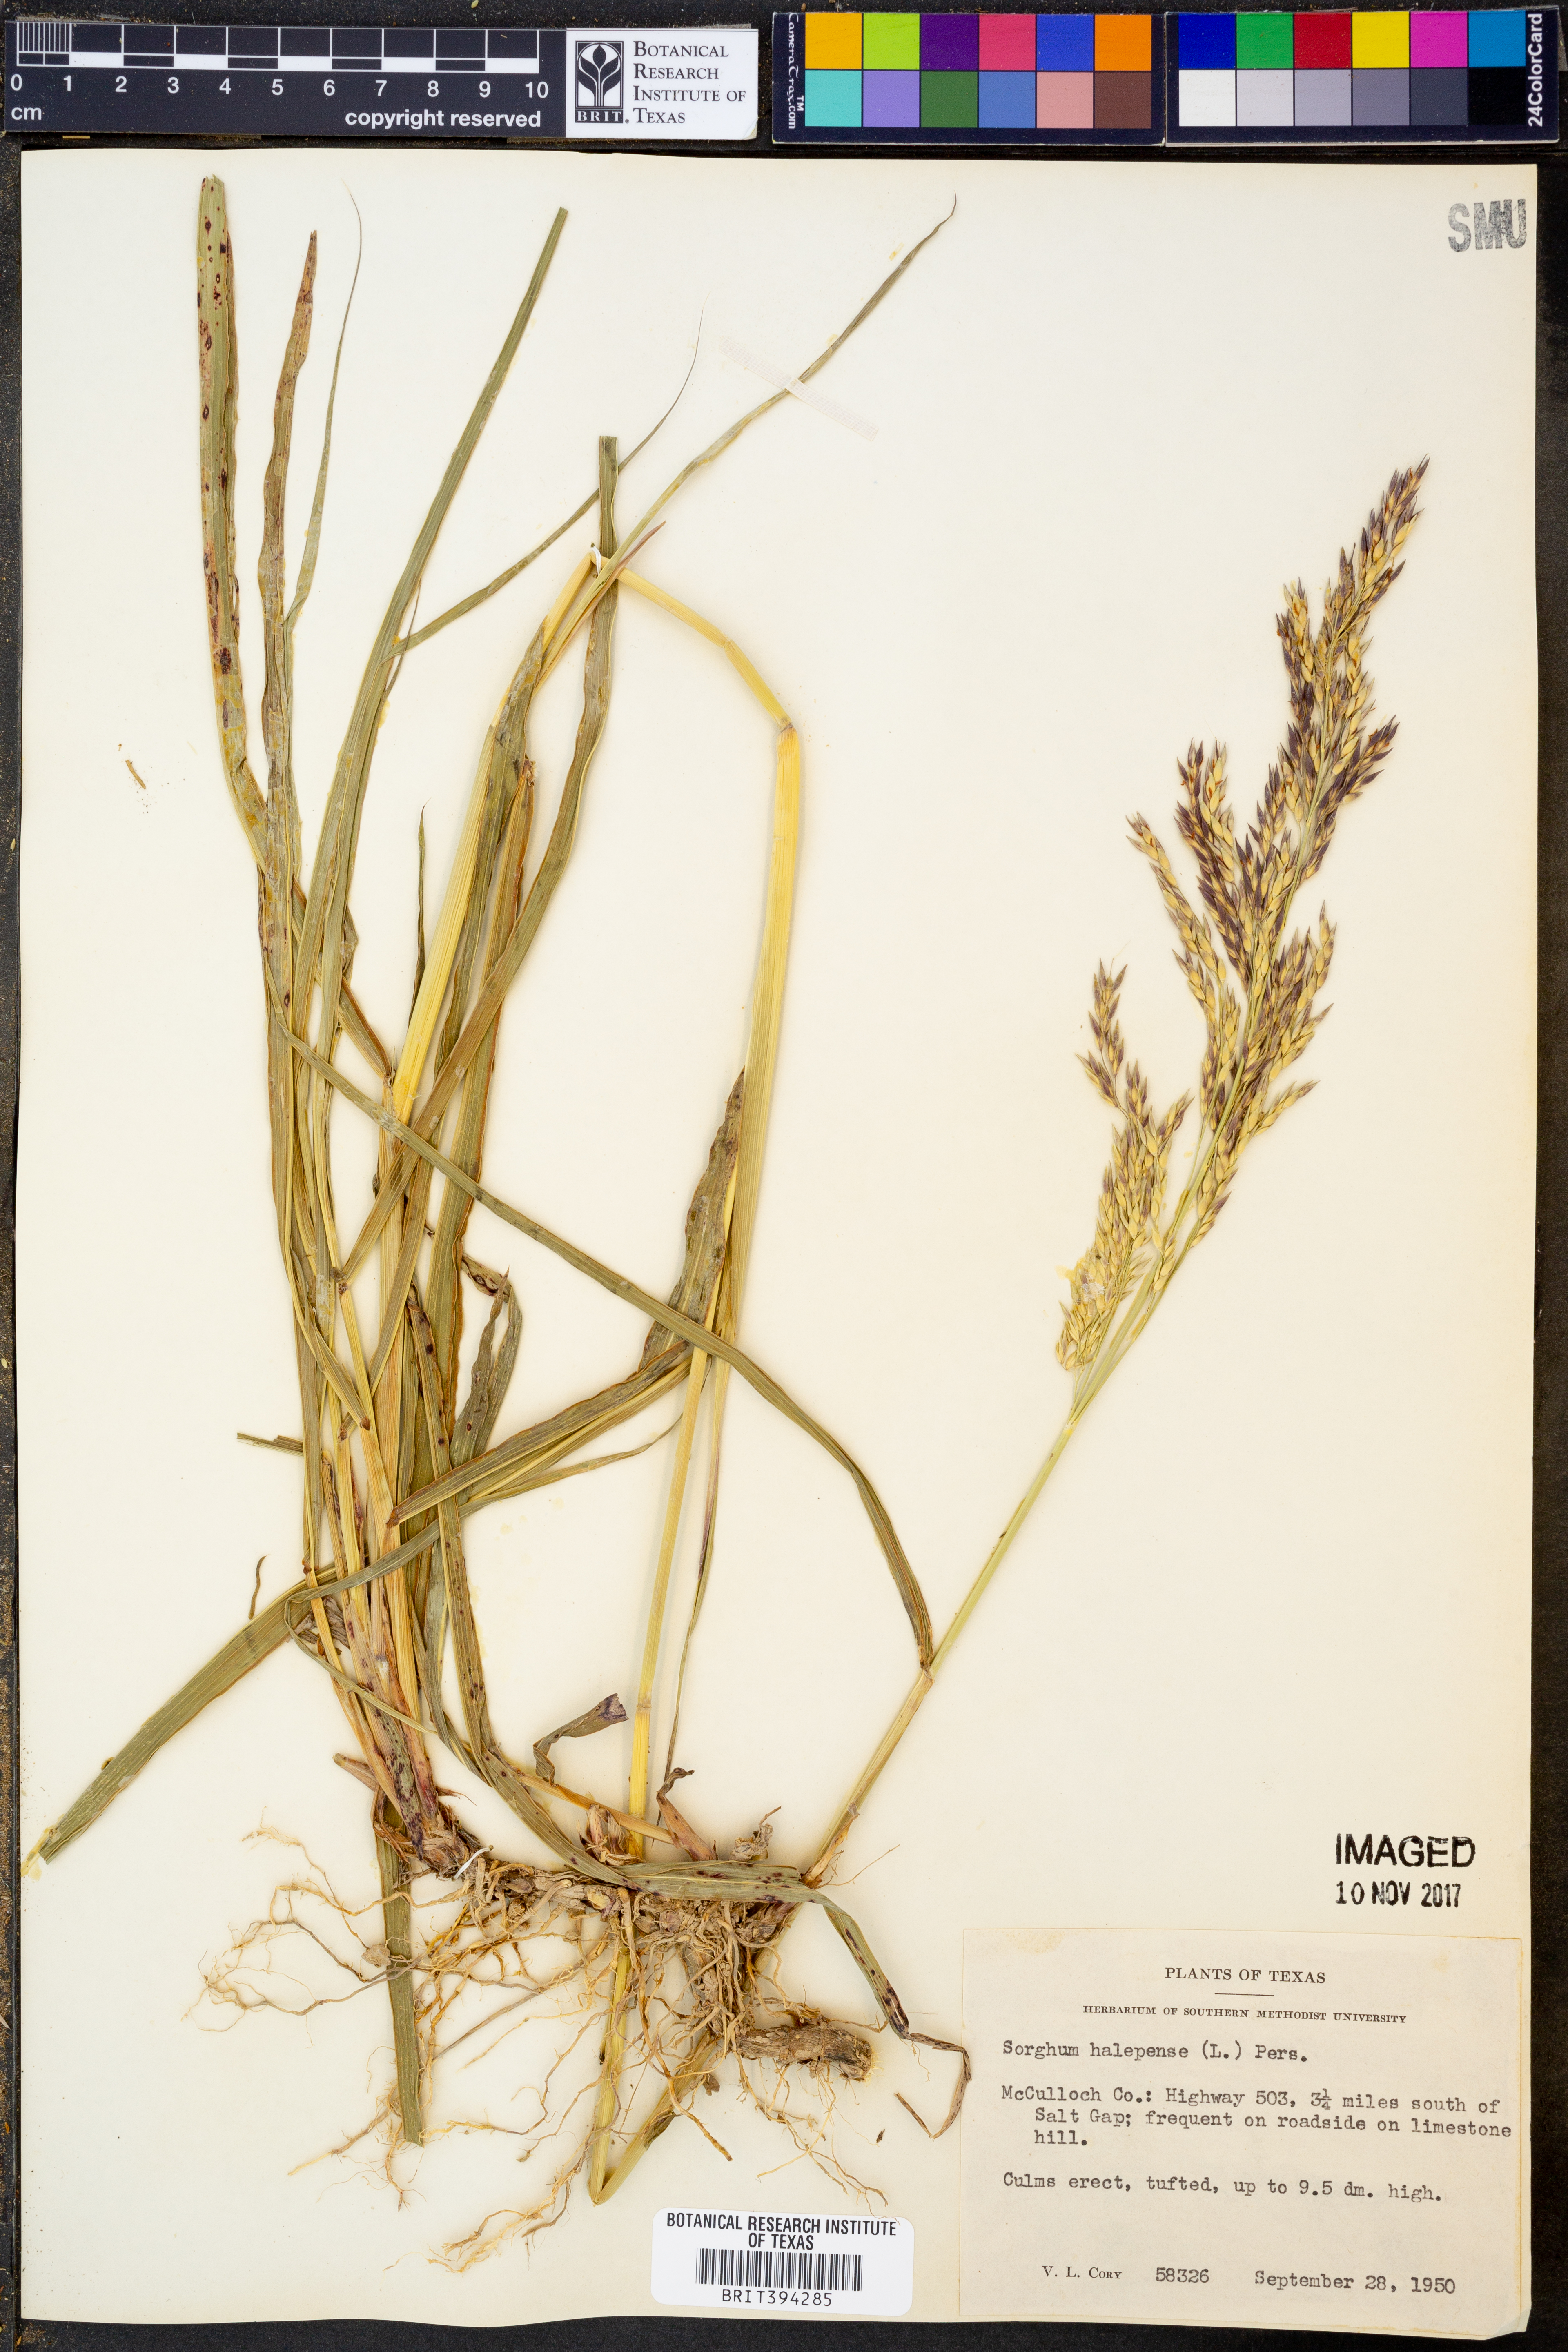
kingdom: Plantae
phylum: Tracheophyta
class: Liliopsida
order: Poales
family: Poaceae
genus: Sorghum
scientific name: Sorghum halepense
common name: Johnson-grass
